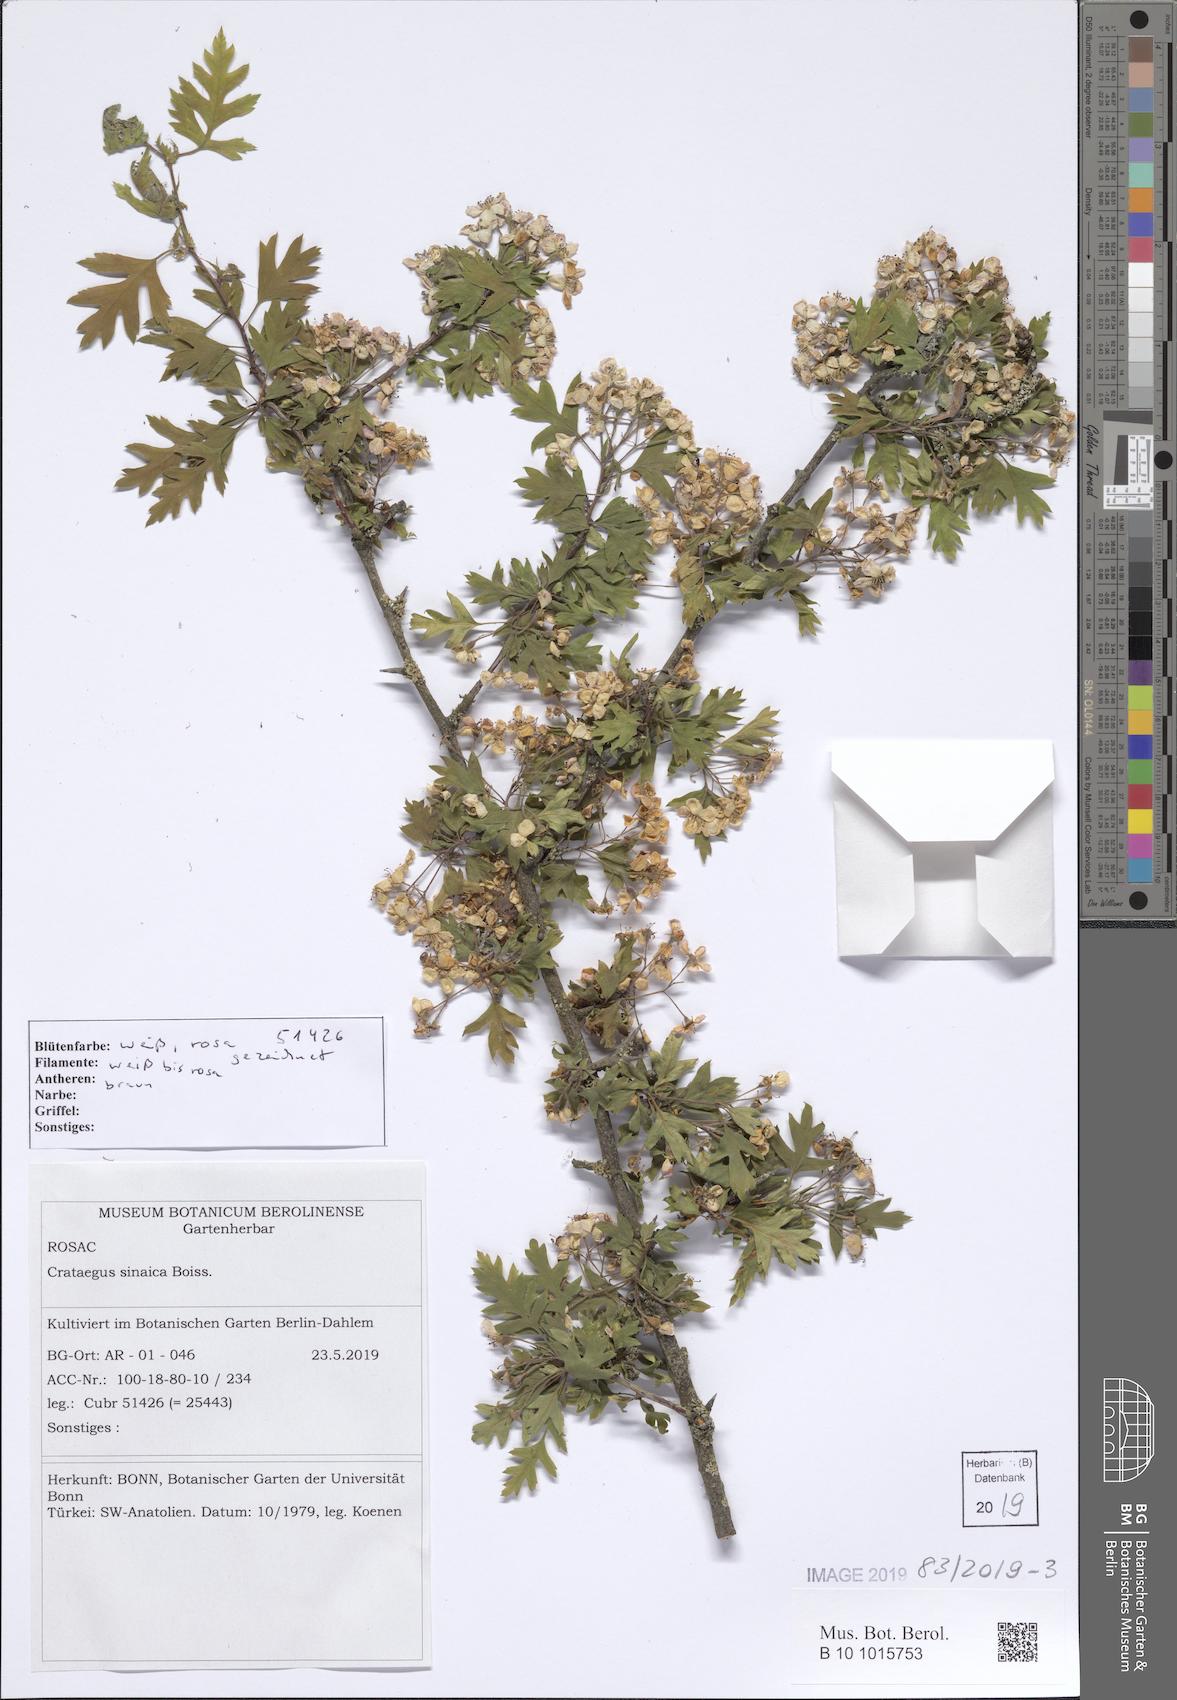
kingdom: Plantae
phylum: Tracheophyta
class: Magnoliopsida
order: Rosales
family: Rosaceae
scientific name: Rosaceae
